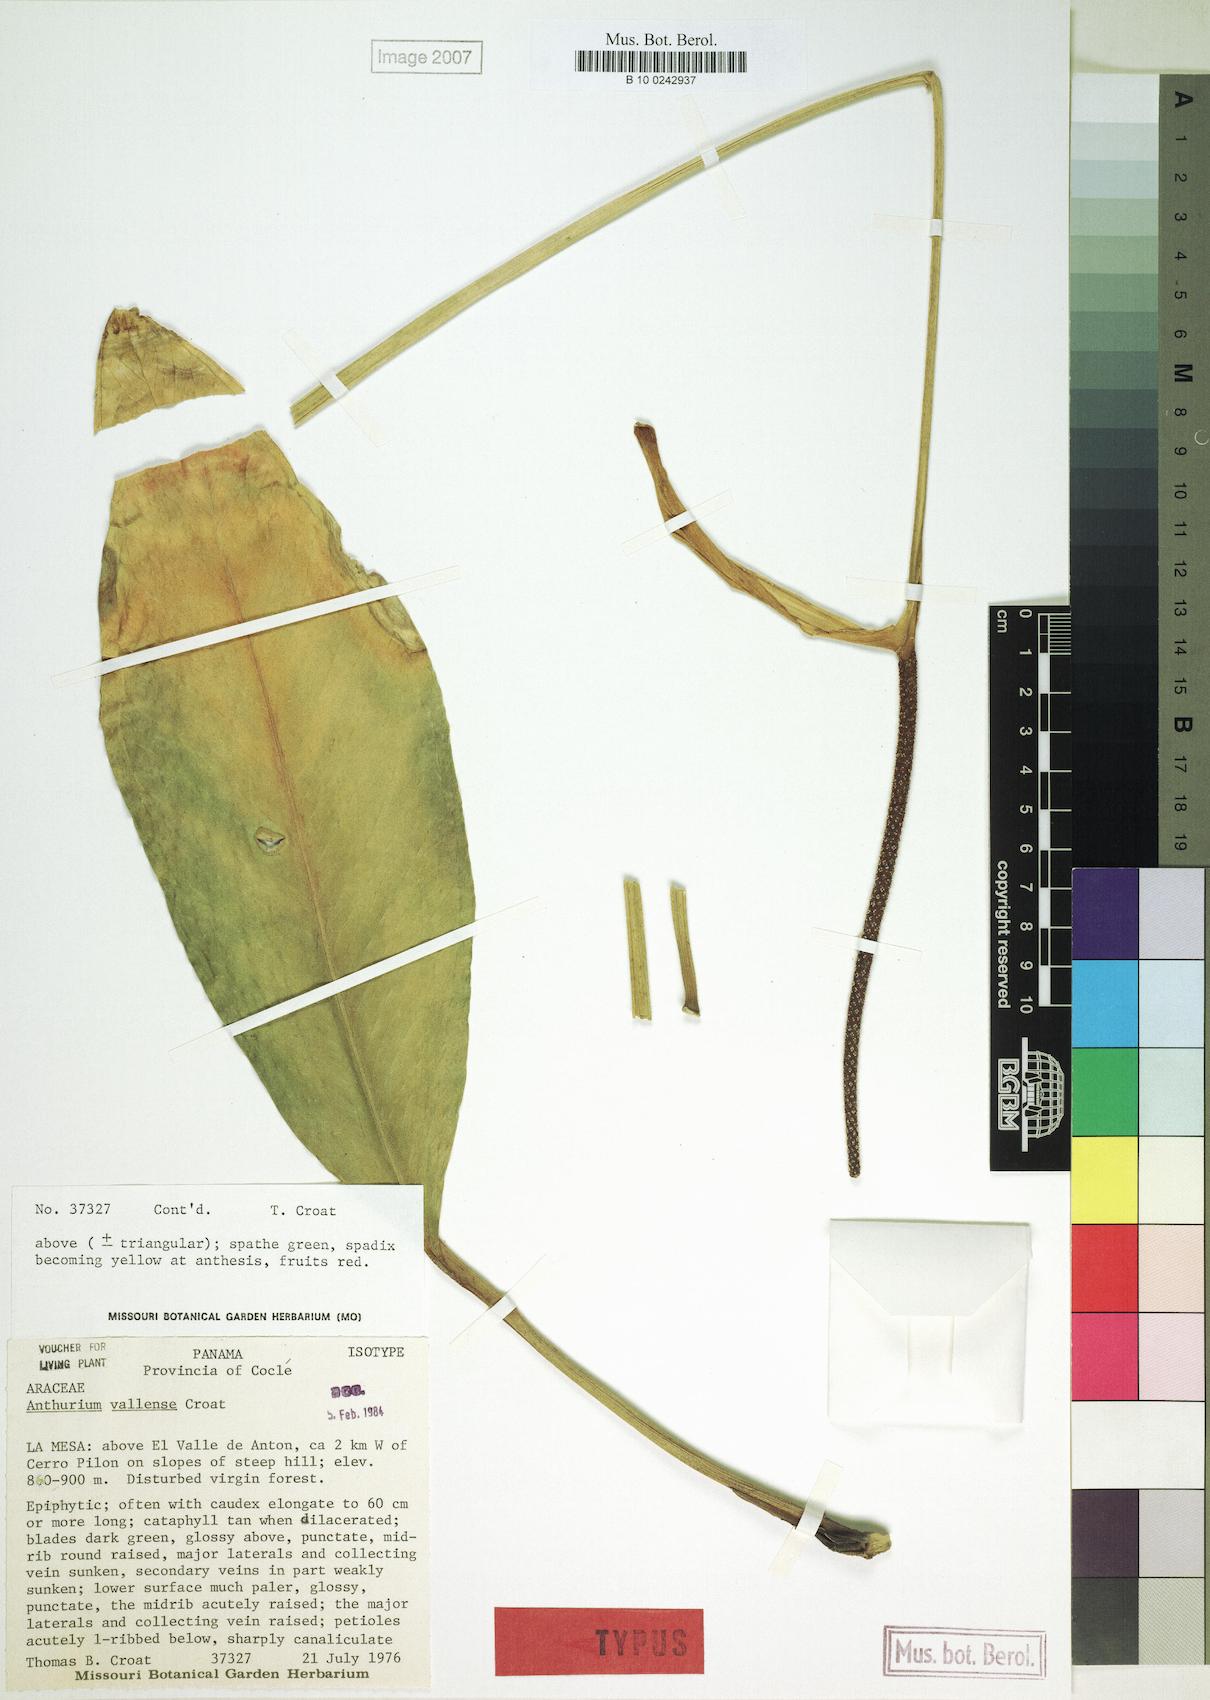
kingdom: Plantae
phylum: Tracheophyta
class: Liliopsida
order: Alismatales
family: Araceae
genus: Anthurium
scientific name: Anthurium vallense
